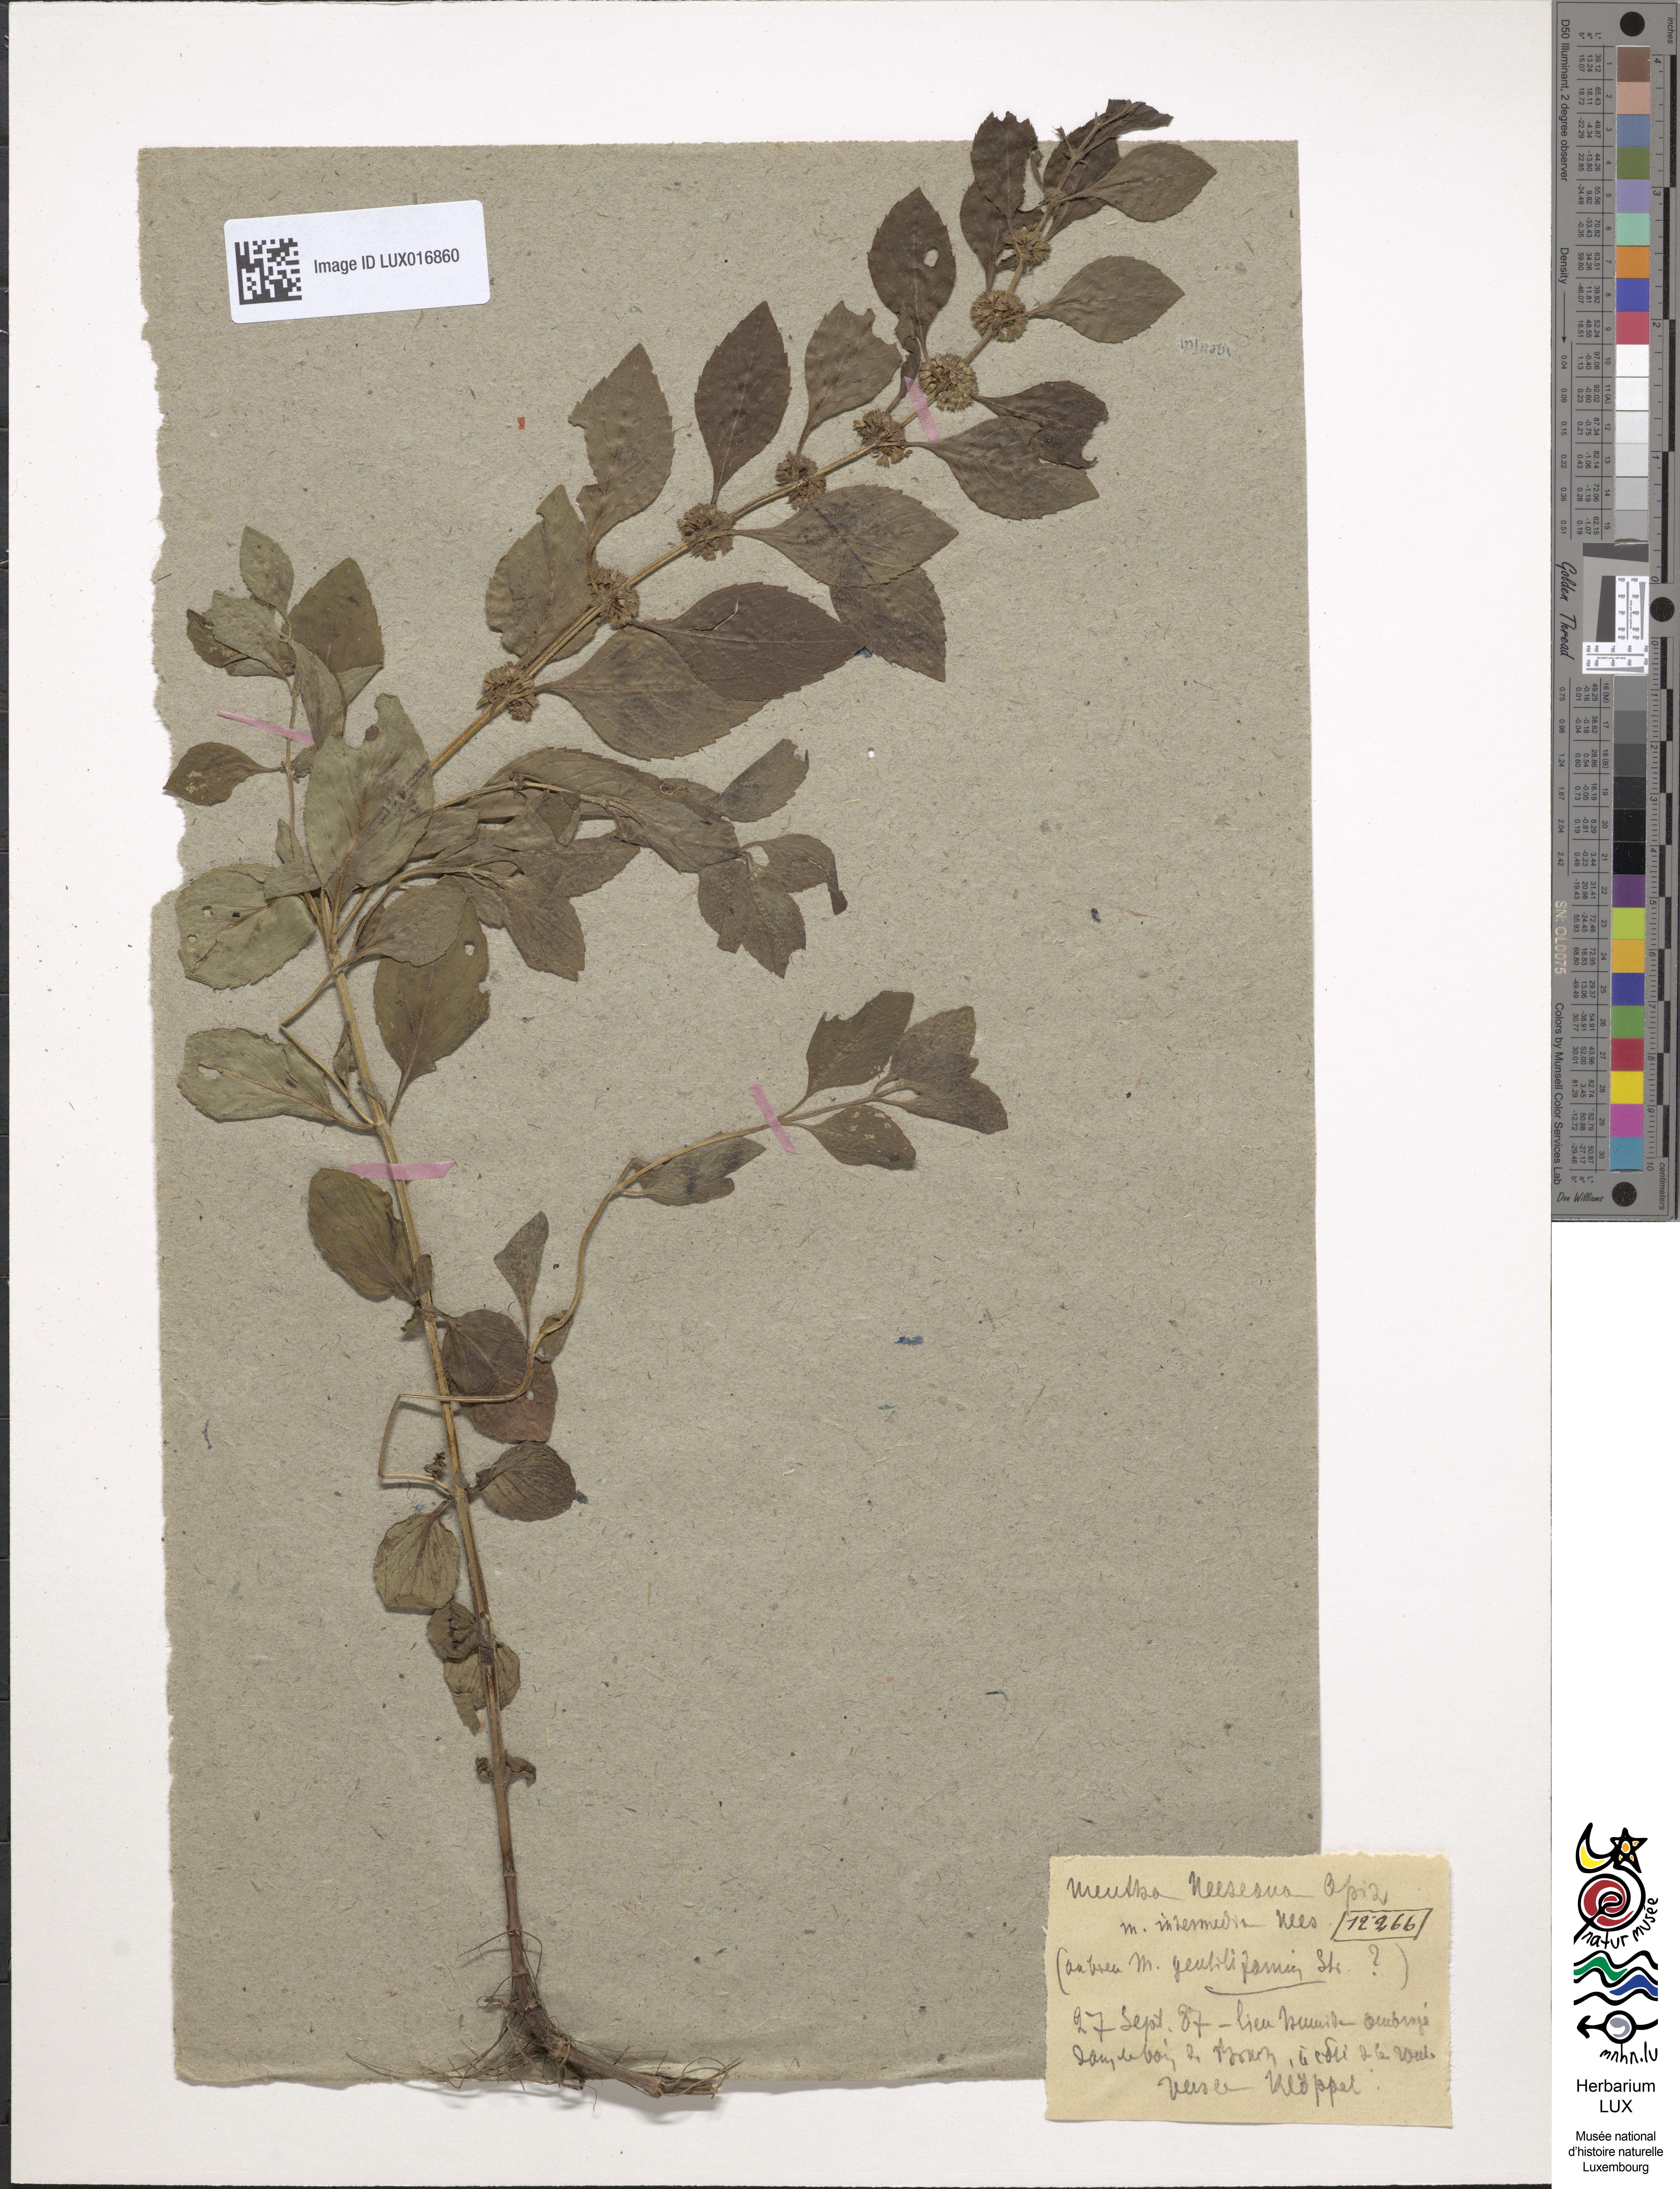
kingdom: Plantae
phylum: Tracheophyta
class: Magnoliopsida
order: Lamiales
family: Lamiaceae
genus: Mentha
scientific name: Mentha arvensis
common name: Corn mint
